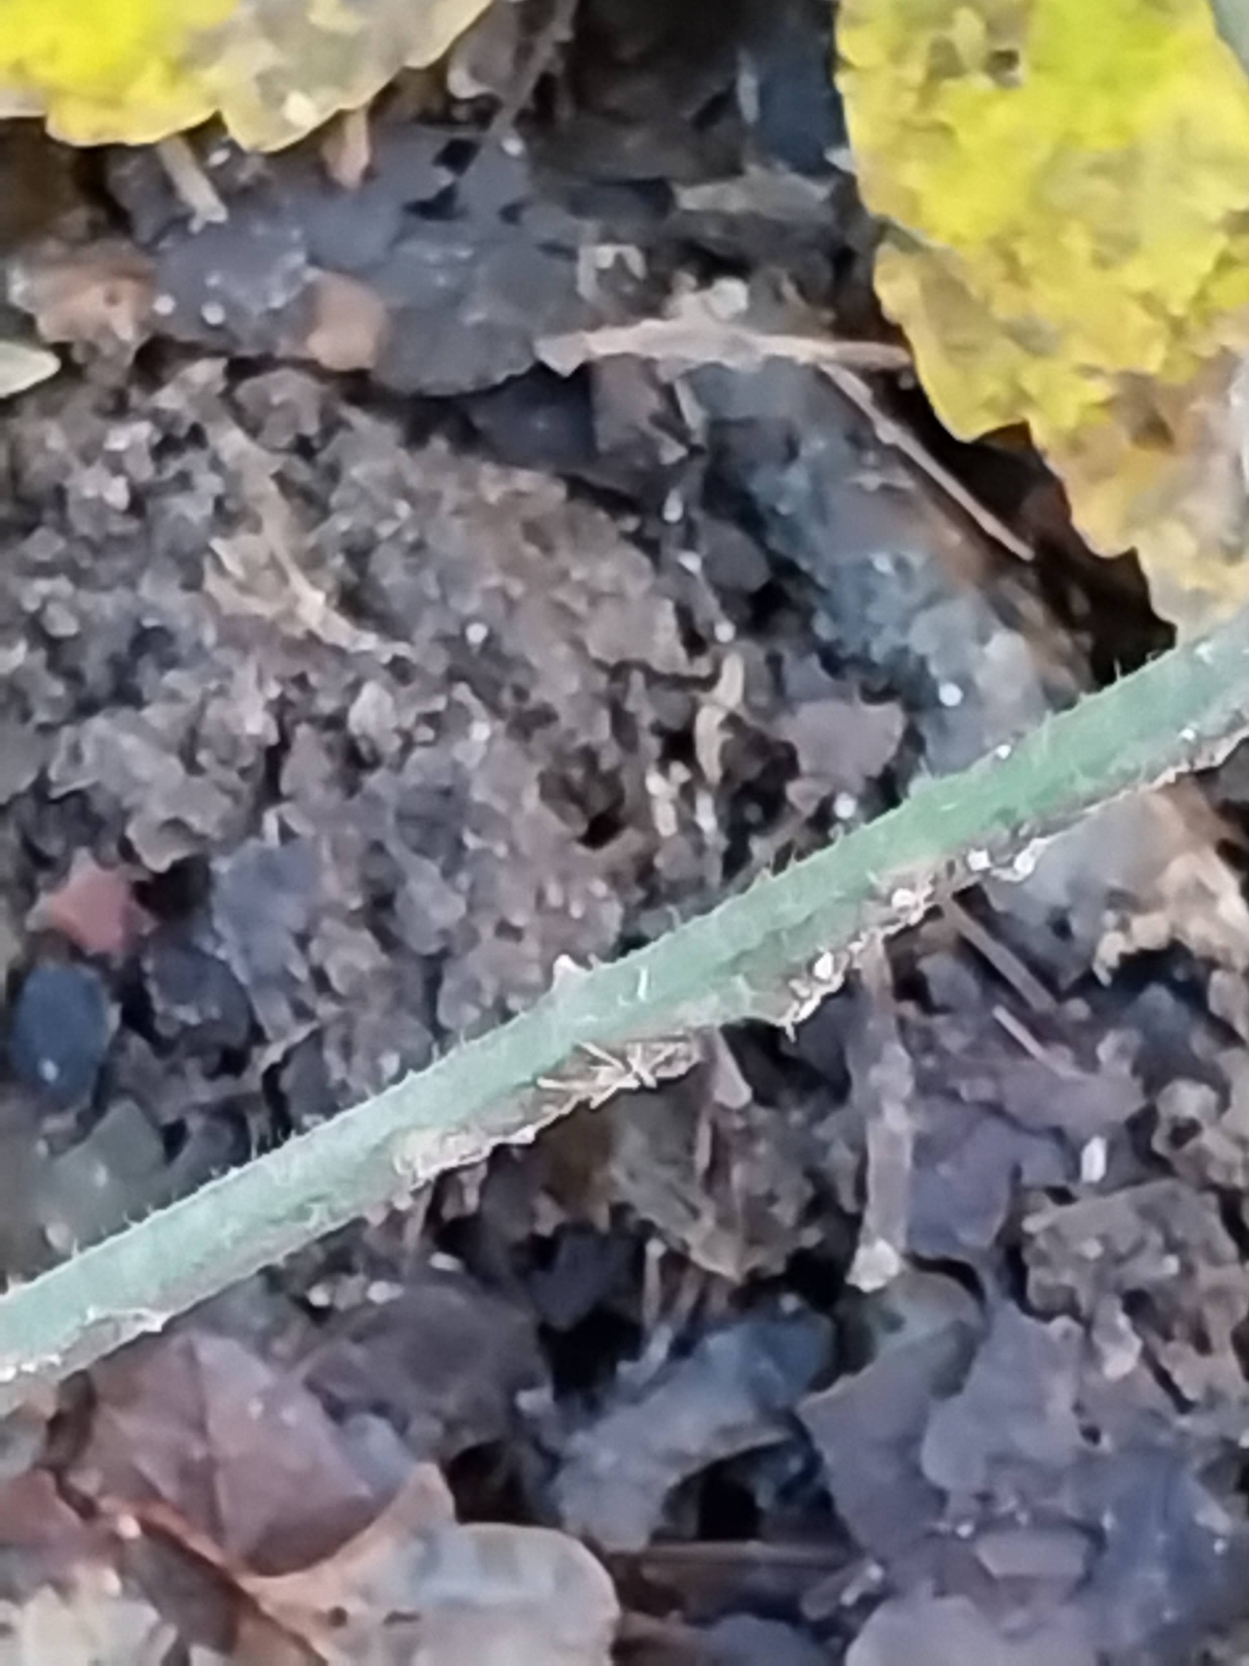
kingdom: Plantae
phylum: Tracheophyta
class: Magnoliopsida
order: Rosales
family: Rosaceae
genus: Rubus
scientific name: Rubus radula
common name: Rasperu brombær
